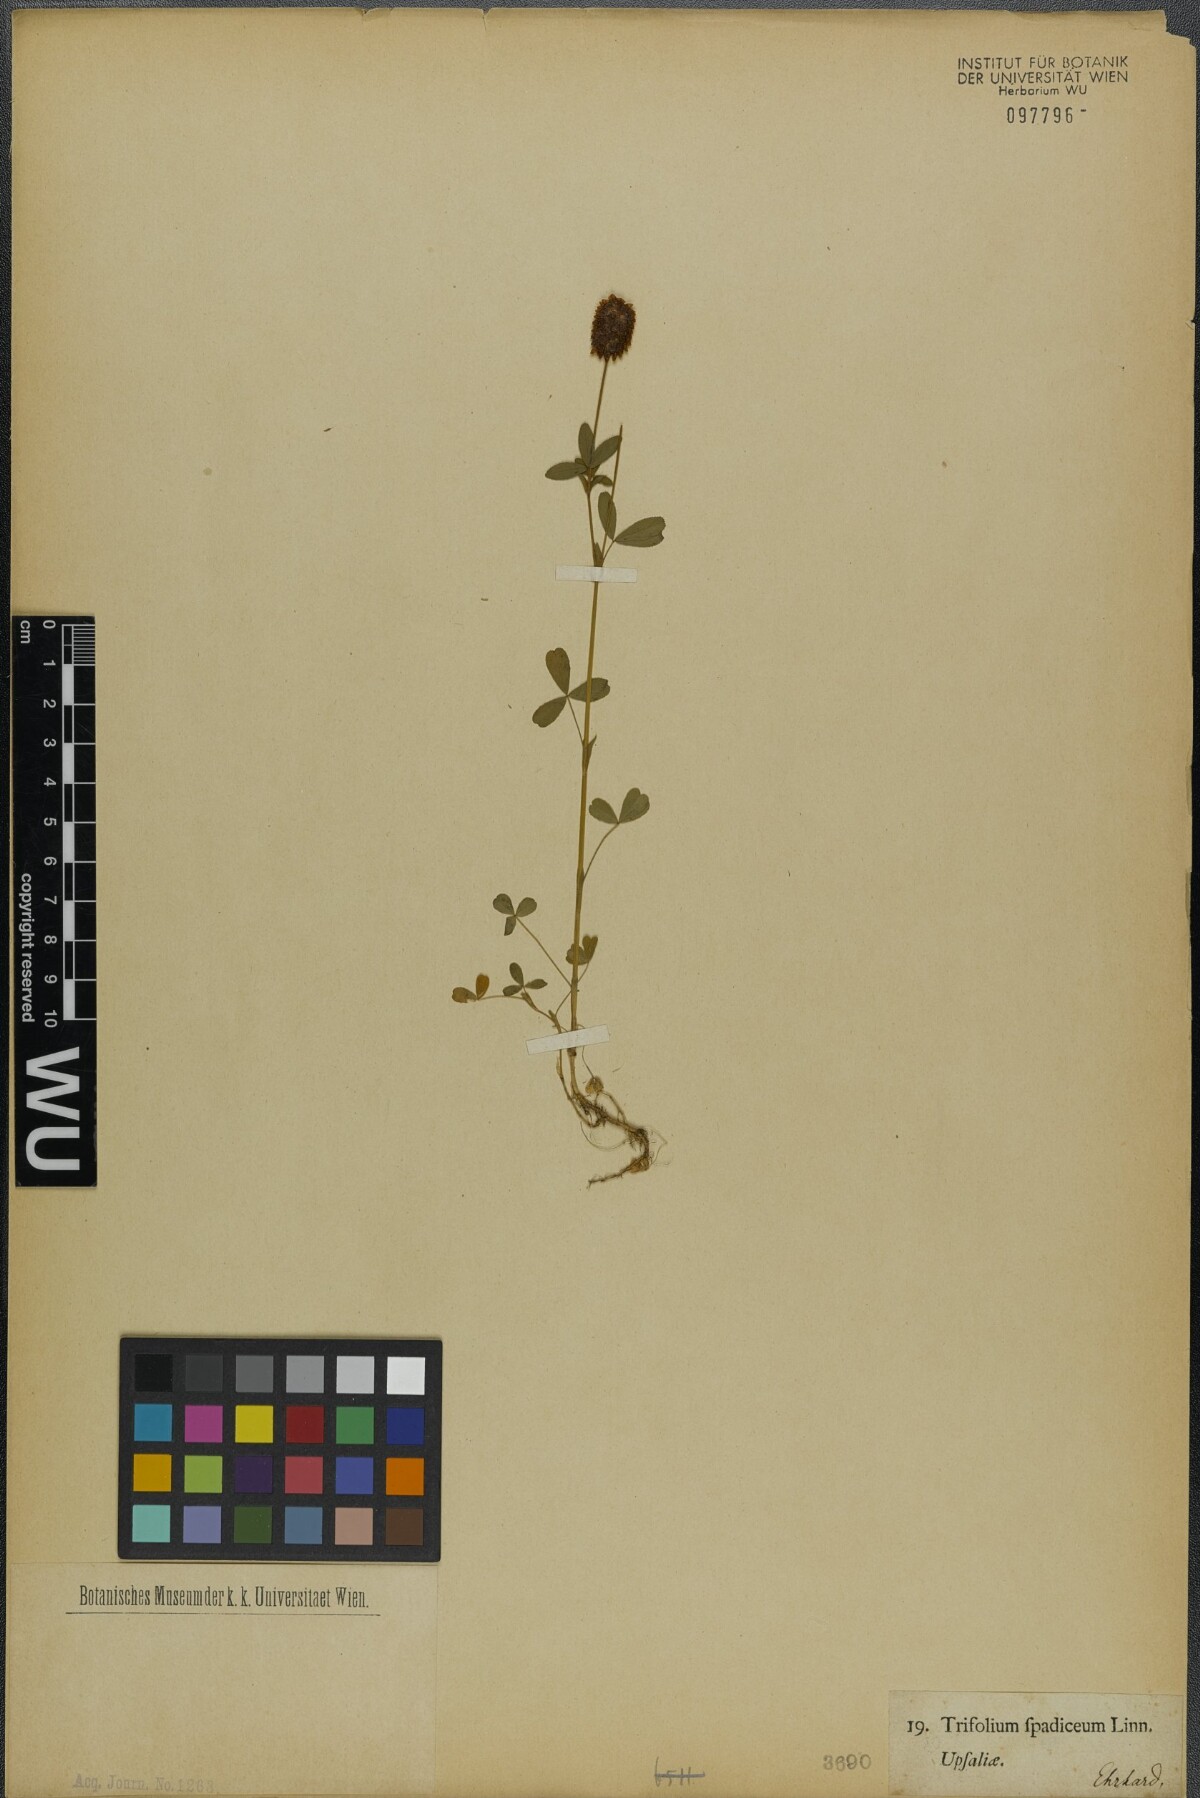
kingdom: Plantae
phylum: Tracheophyta
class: Magnoliopsida
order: Fabales
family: Fabaceae
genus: Trifolium
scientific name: Trifolium spadiceum
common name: Brown moor clover
